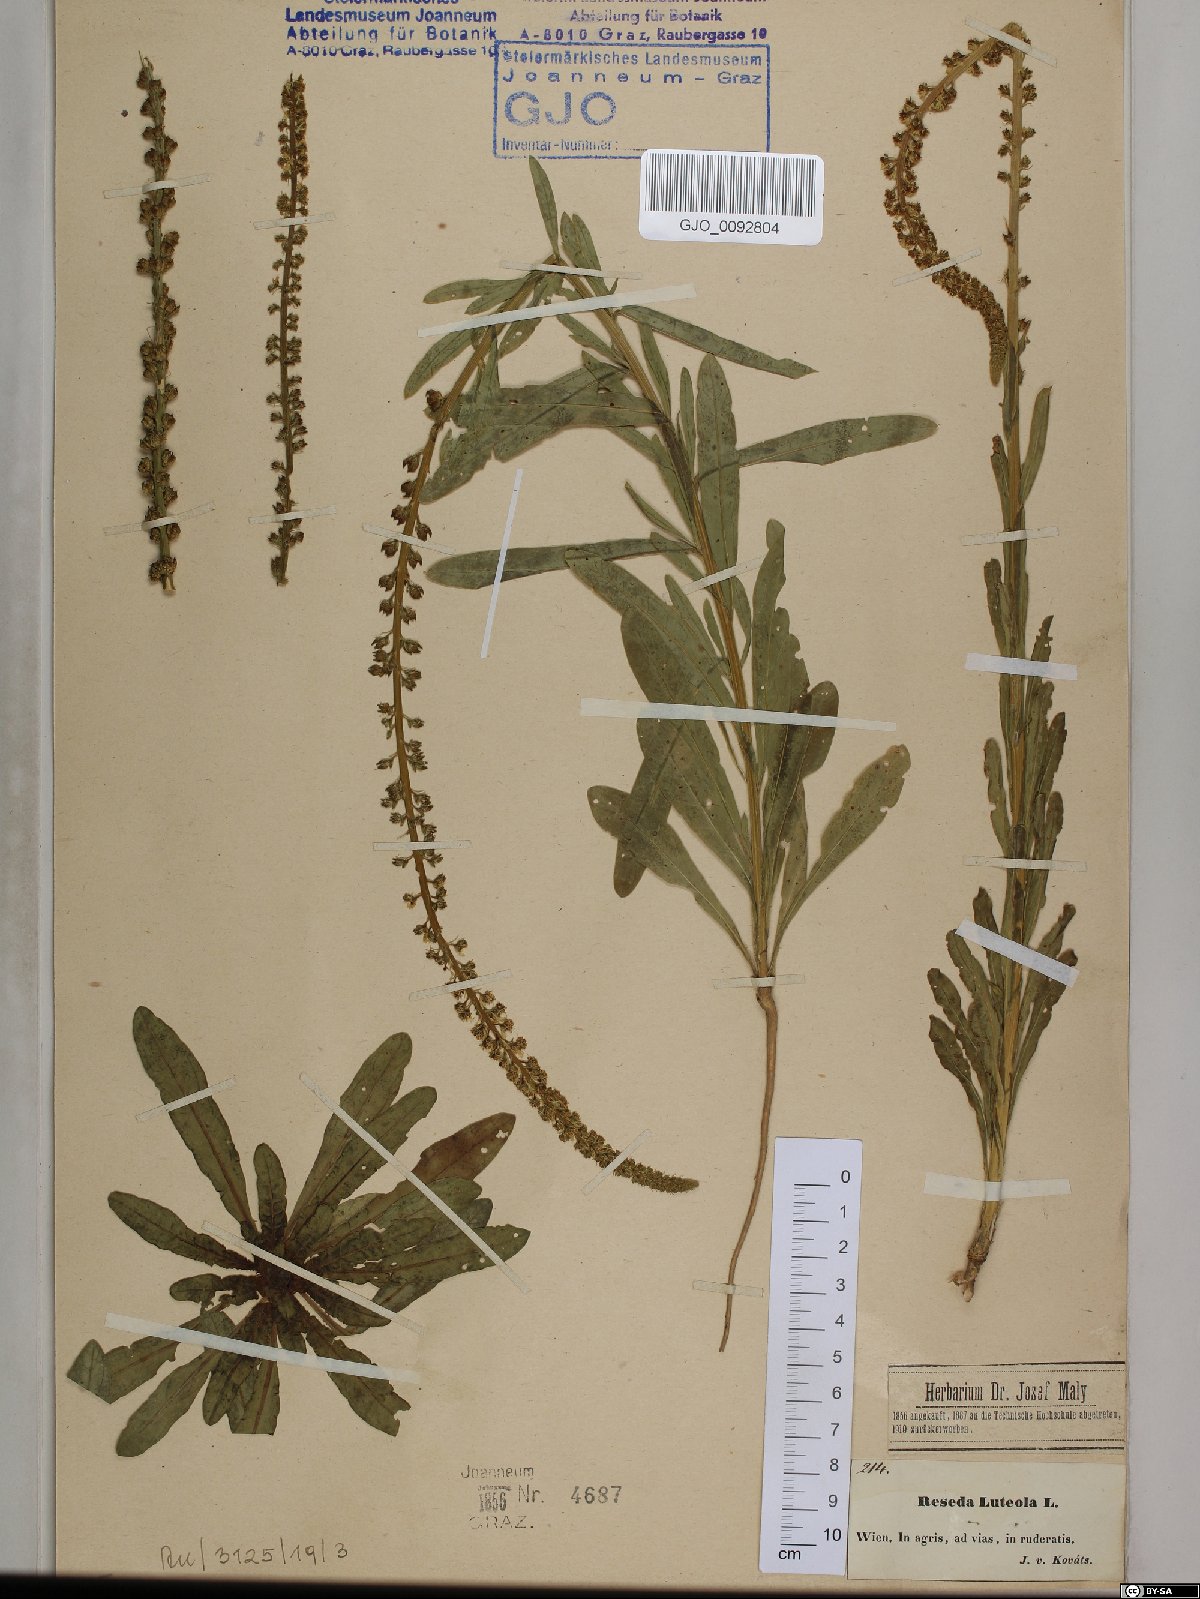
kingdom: Plantae
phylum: Tracheophyta
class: Magnoliopsida
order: Brassicales
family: Resedaceae
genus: Reseda
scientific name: Reseda luteola
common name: Weld
